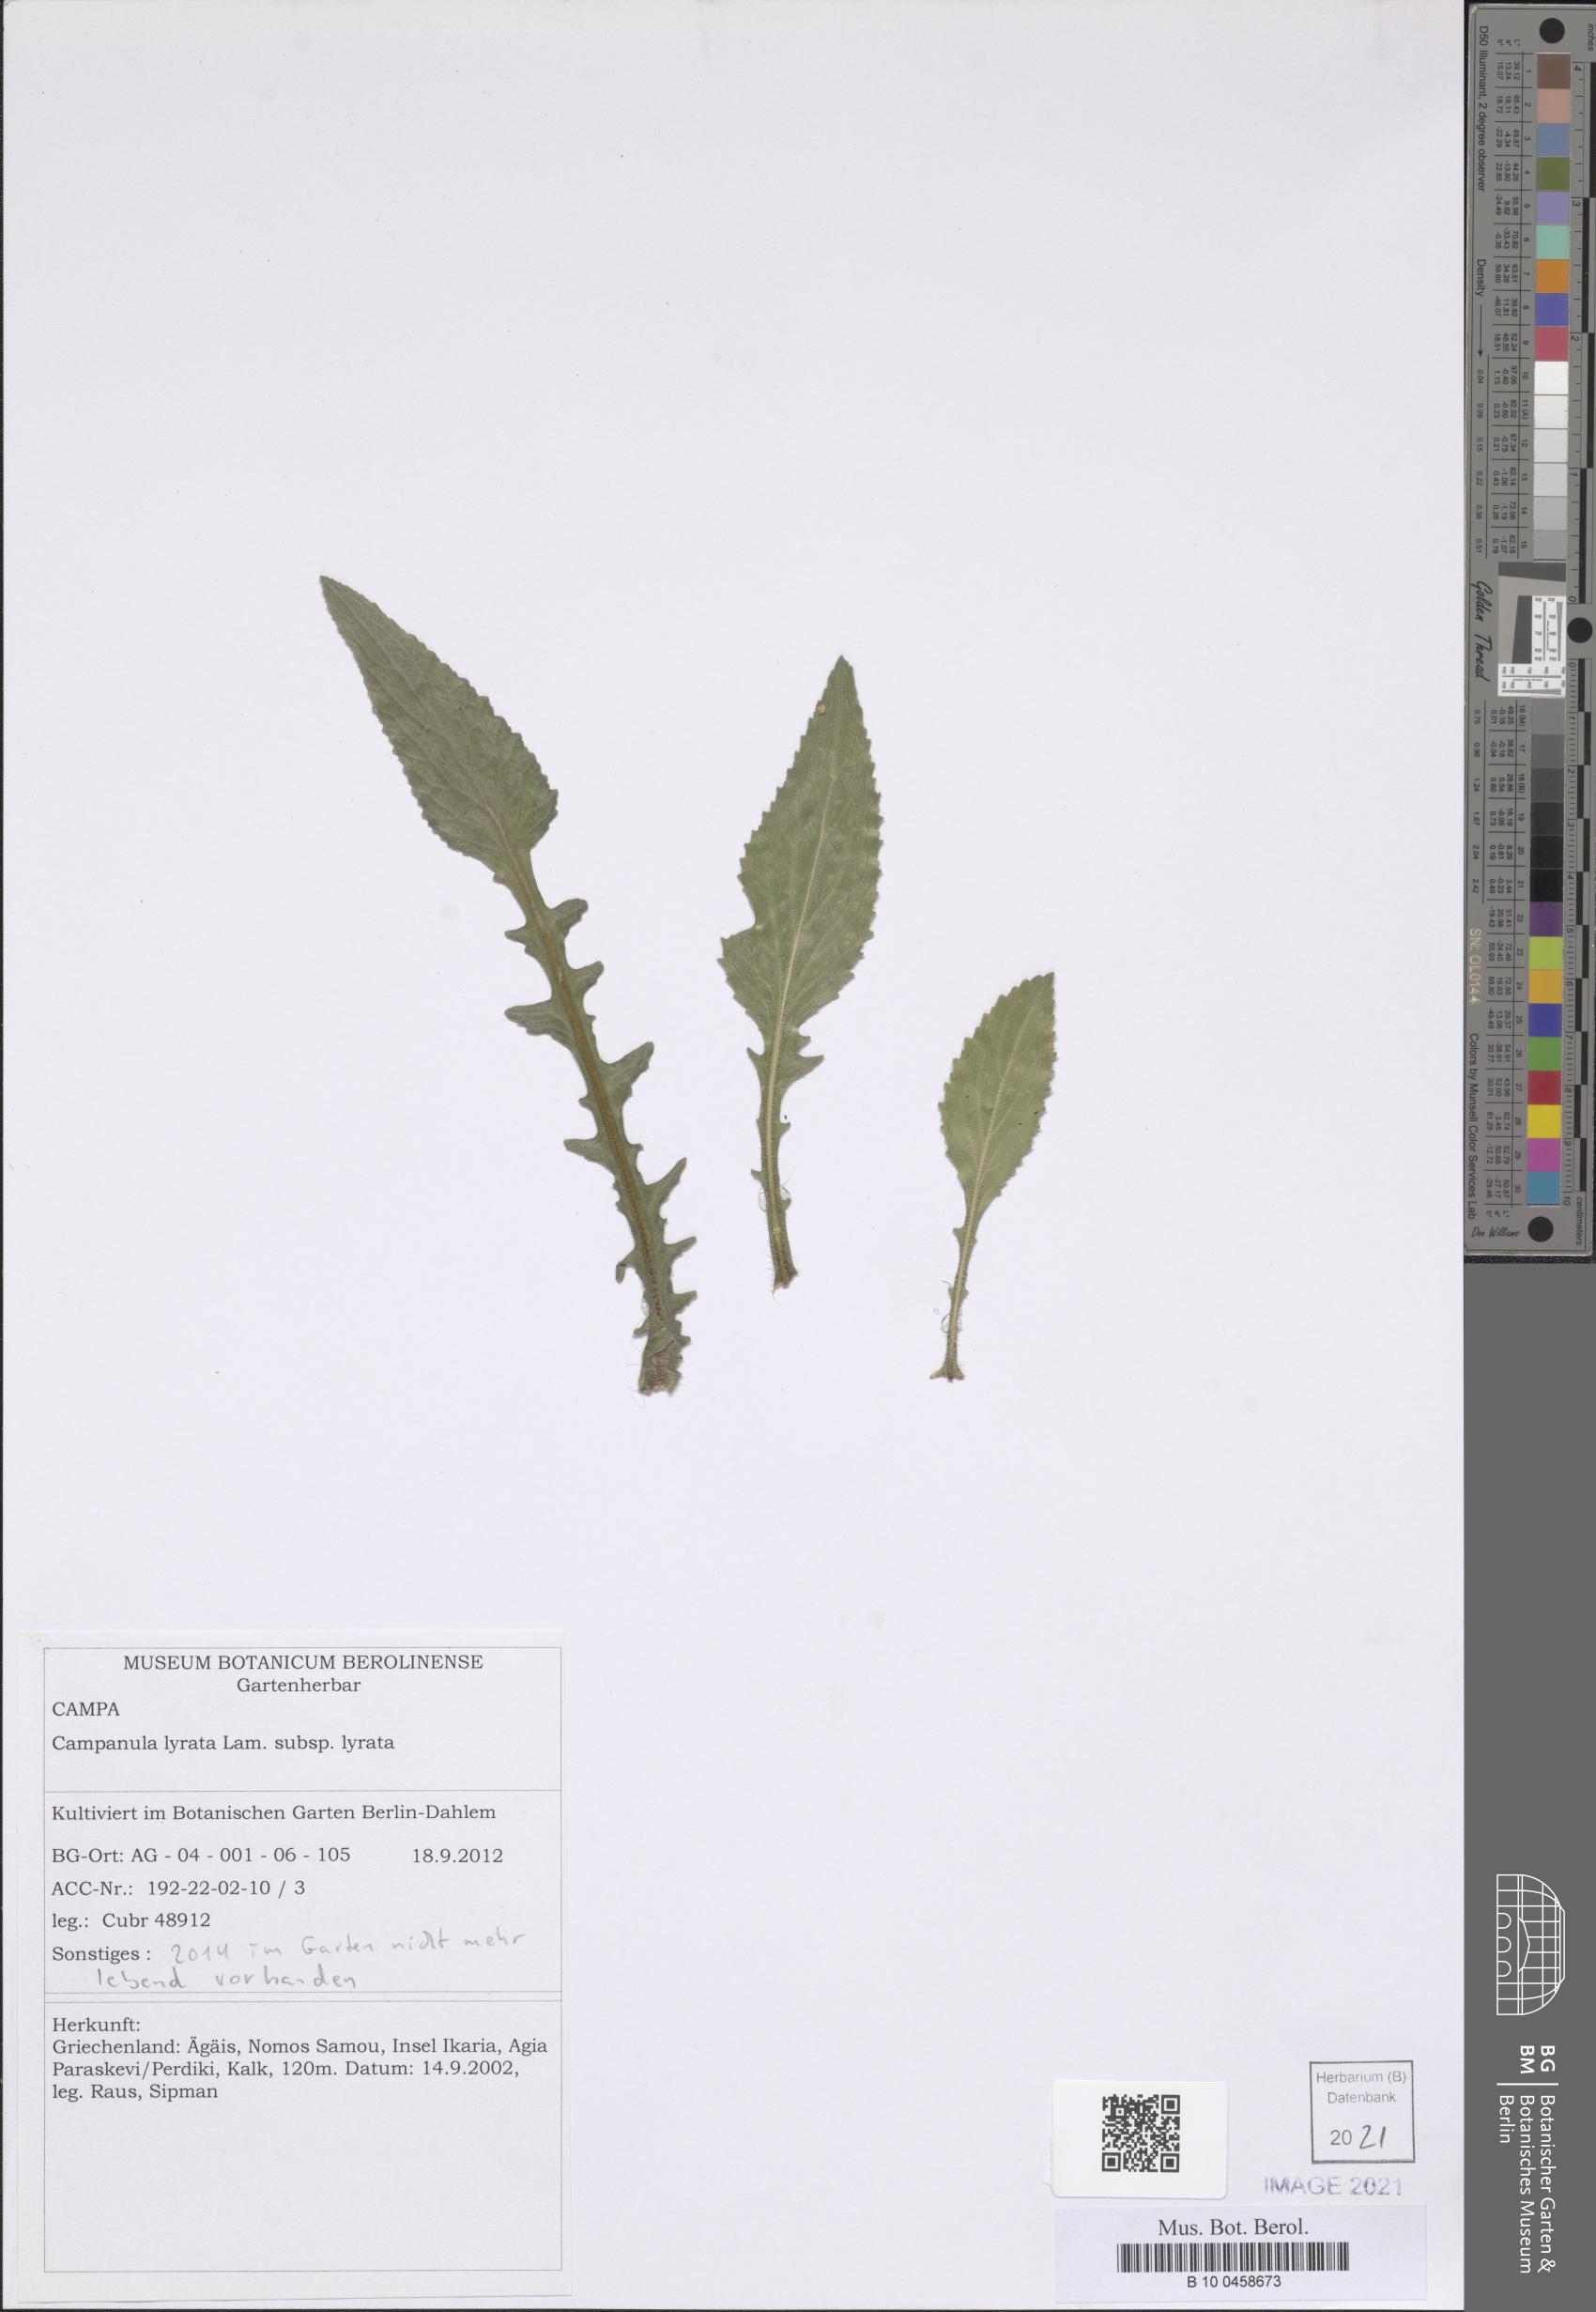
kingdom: Plantae
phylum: Tracheophyta
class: Magnoliopsida
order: Asterales
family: Campanulaceae
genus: Campanula
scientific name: Campanula lyrata
